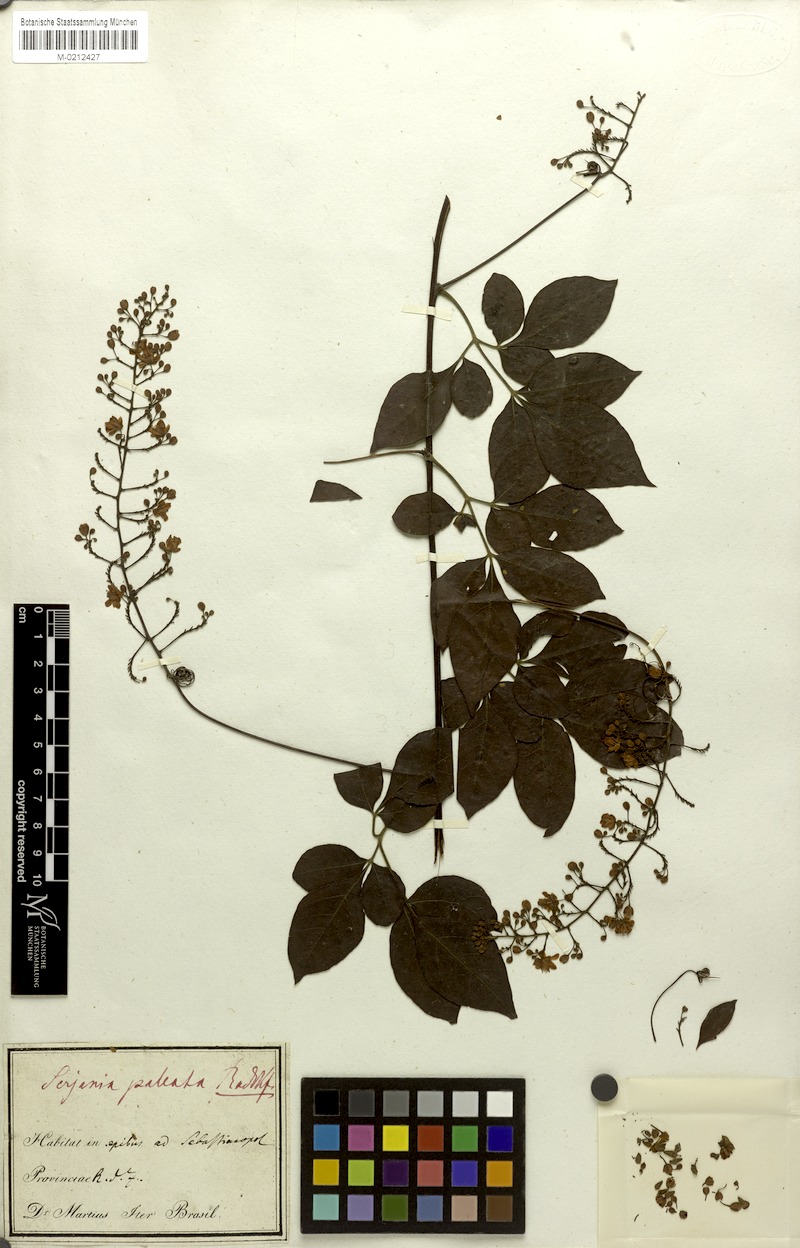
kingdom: Plantae
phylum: Tracheophyta
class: Magnoliopsida
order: Sapindales
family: Sapindaceae
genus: Serjania
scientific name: Serjania paleata
